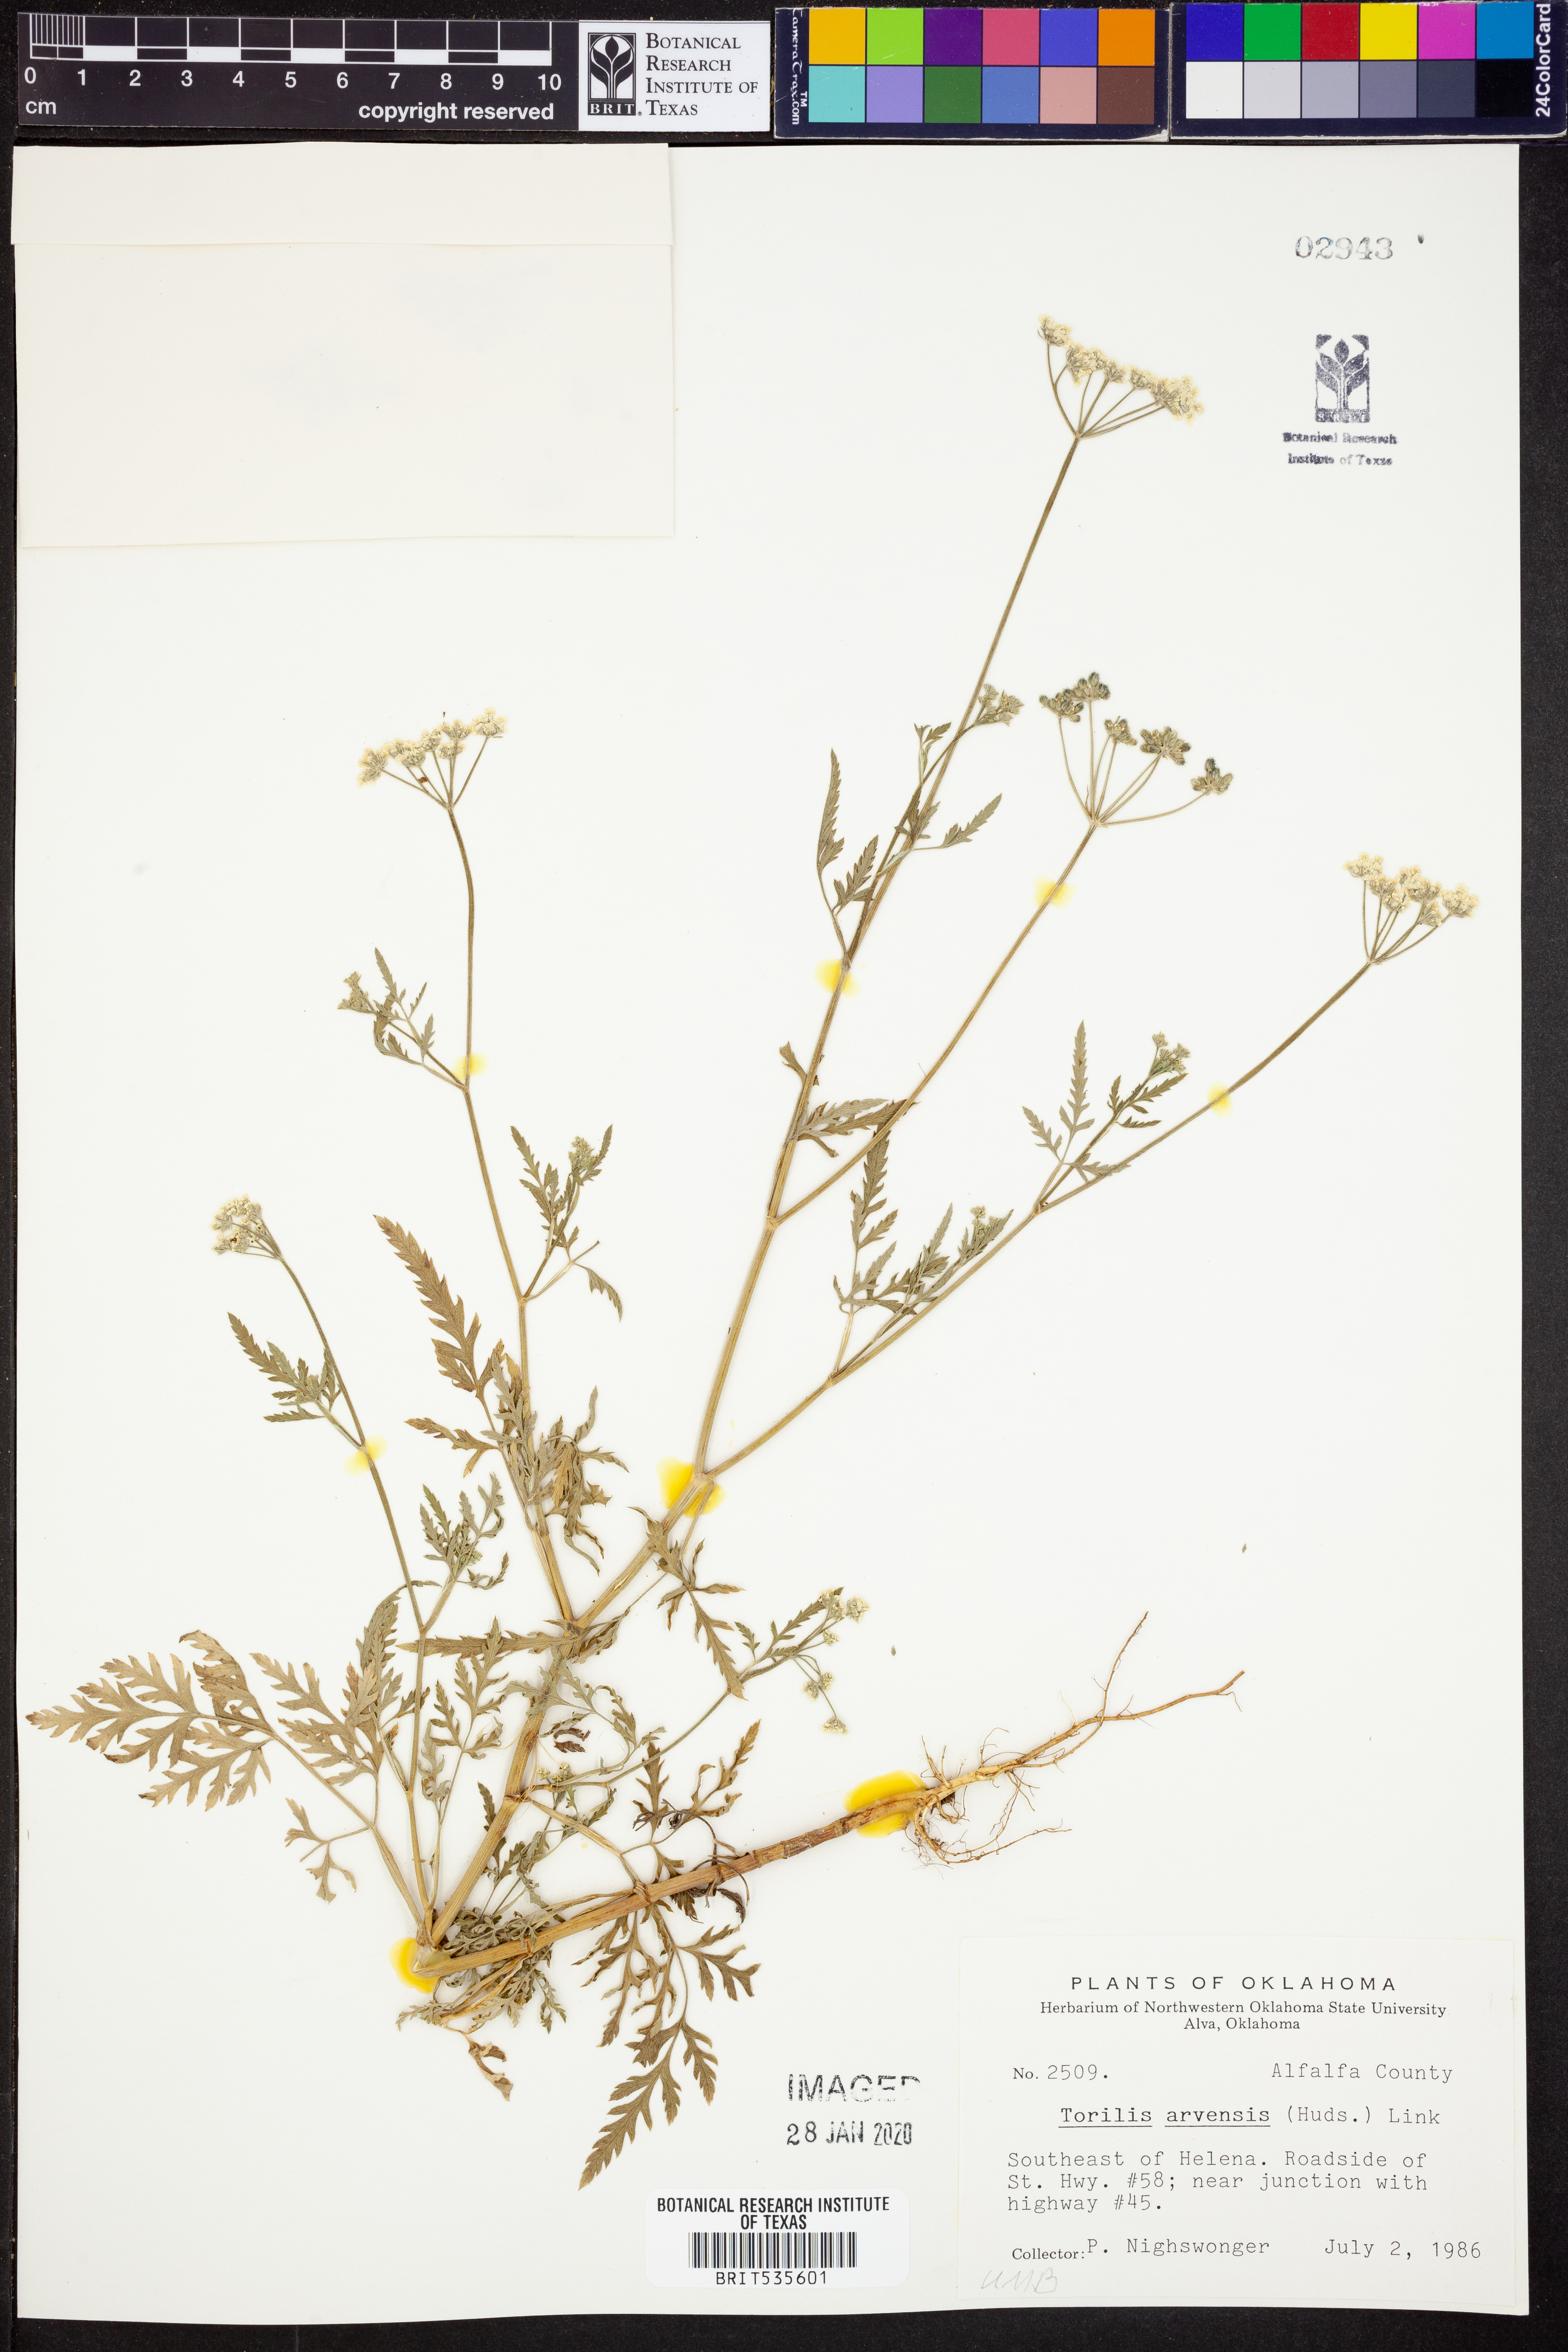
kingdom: Plantae
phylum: Tracheophyta
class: Magnoliopsida
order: Apiales
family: Apiaceae
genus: Torilis
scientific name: Torilis arvensis
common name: Spreading hedge-parsley
